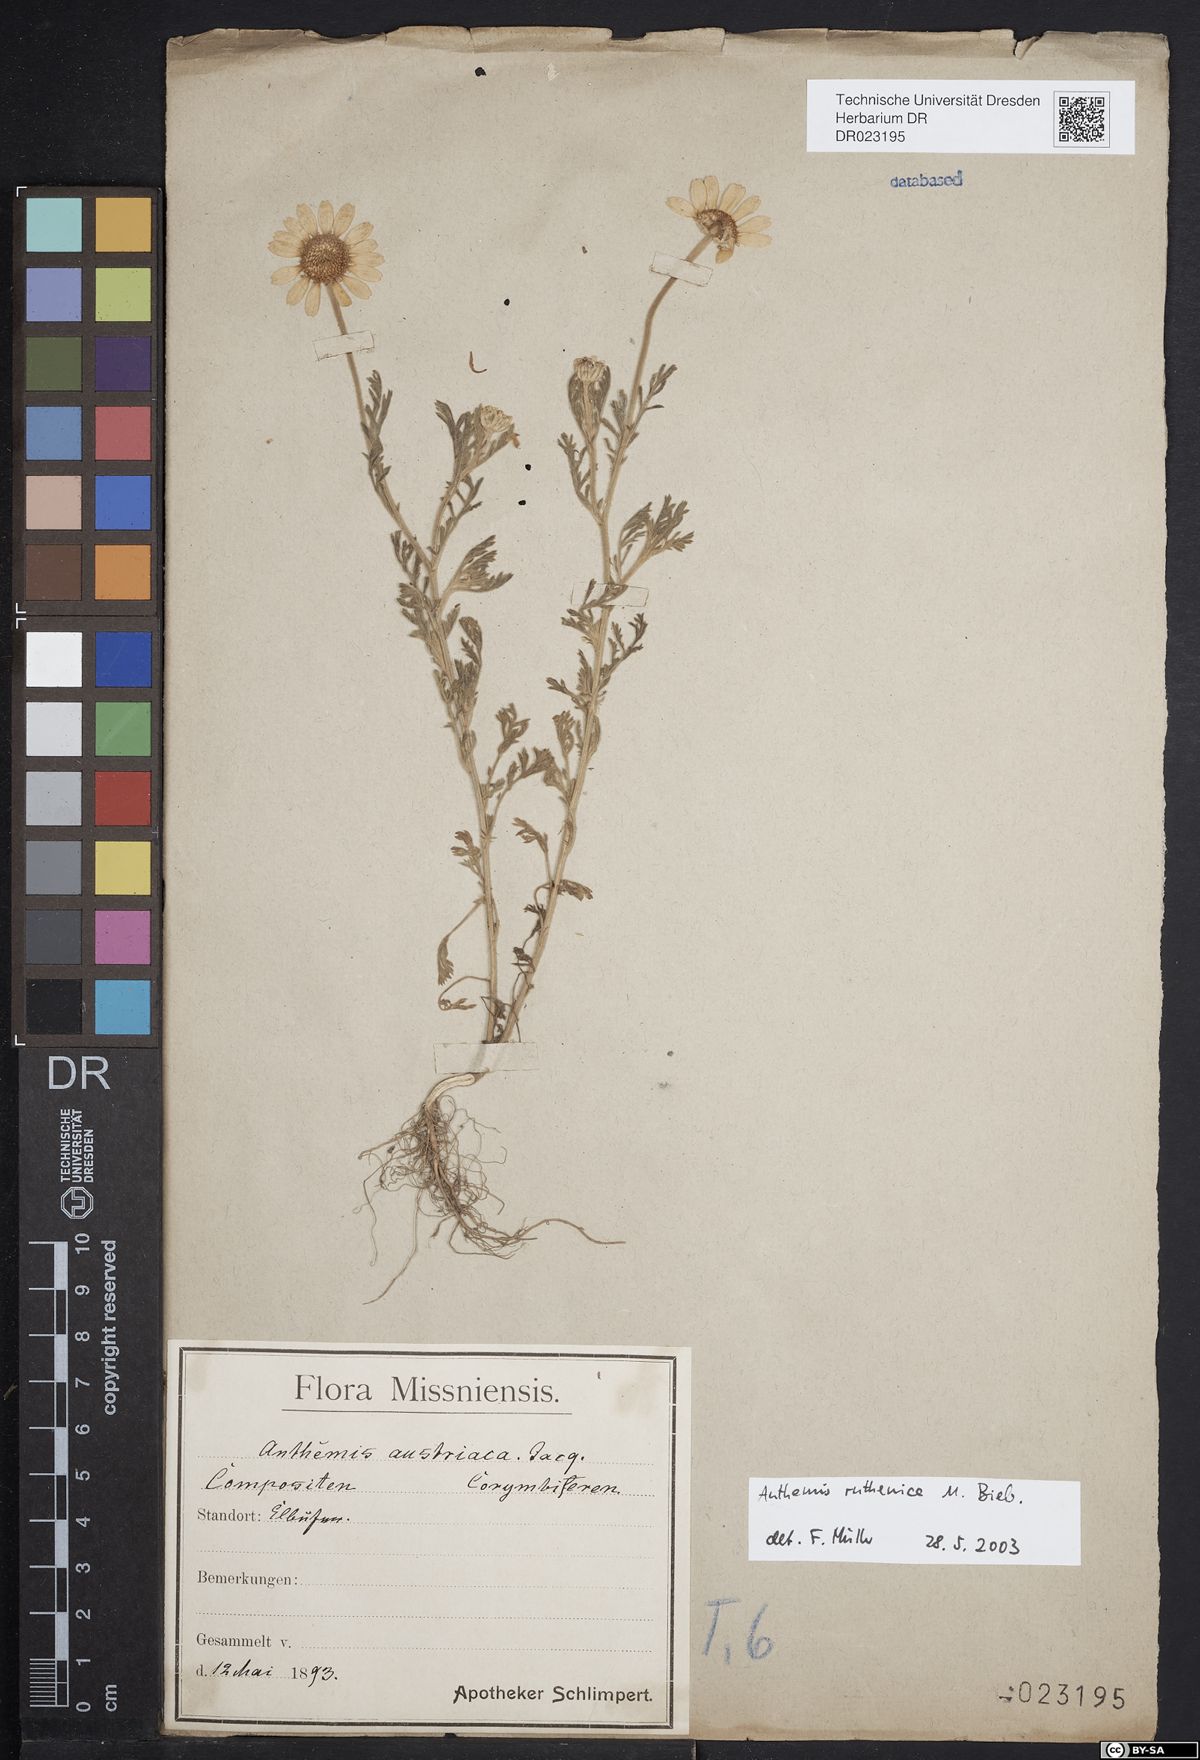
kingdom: Plantae
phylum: Tracheophyta
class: Magnoliopsida
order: Asterales
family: Asteraceae
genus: Anthemis
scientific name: Anthemis ruthenica
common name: Eastern chamomile
